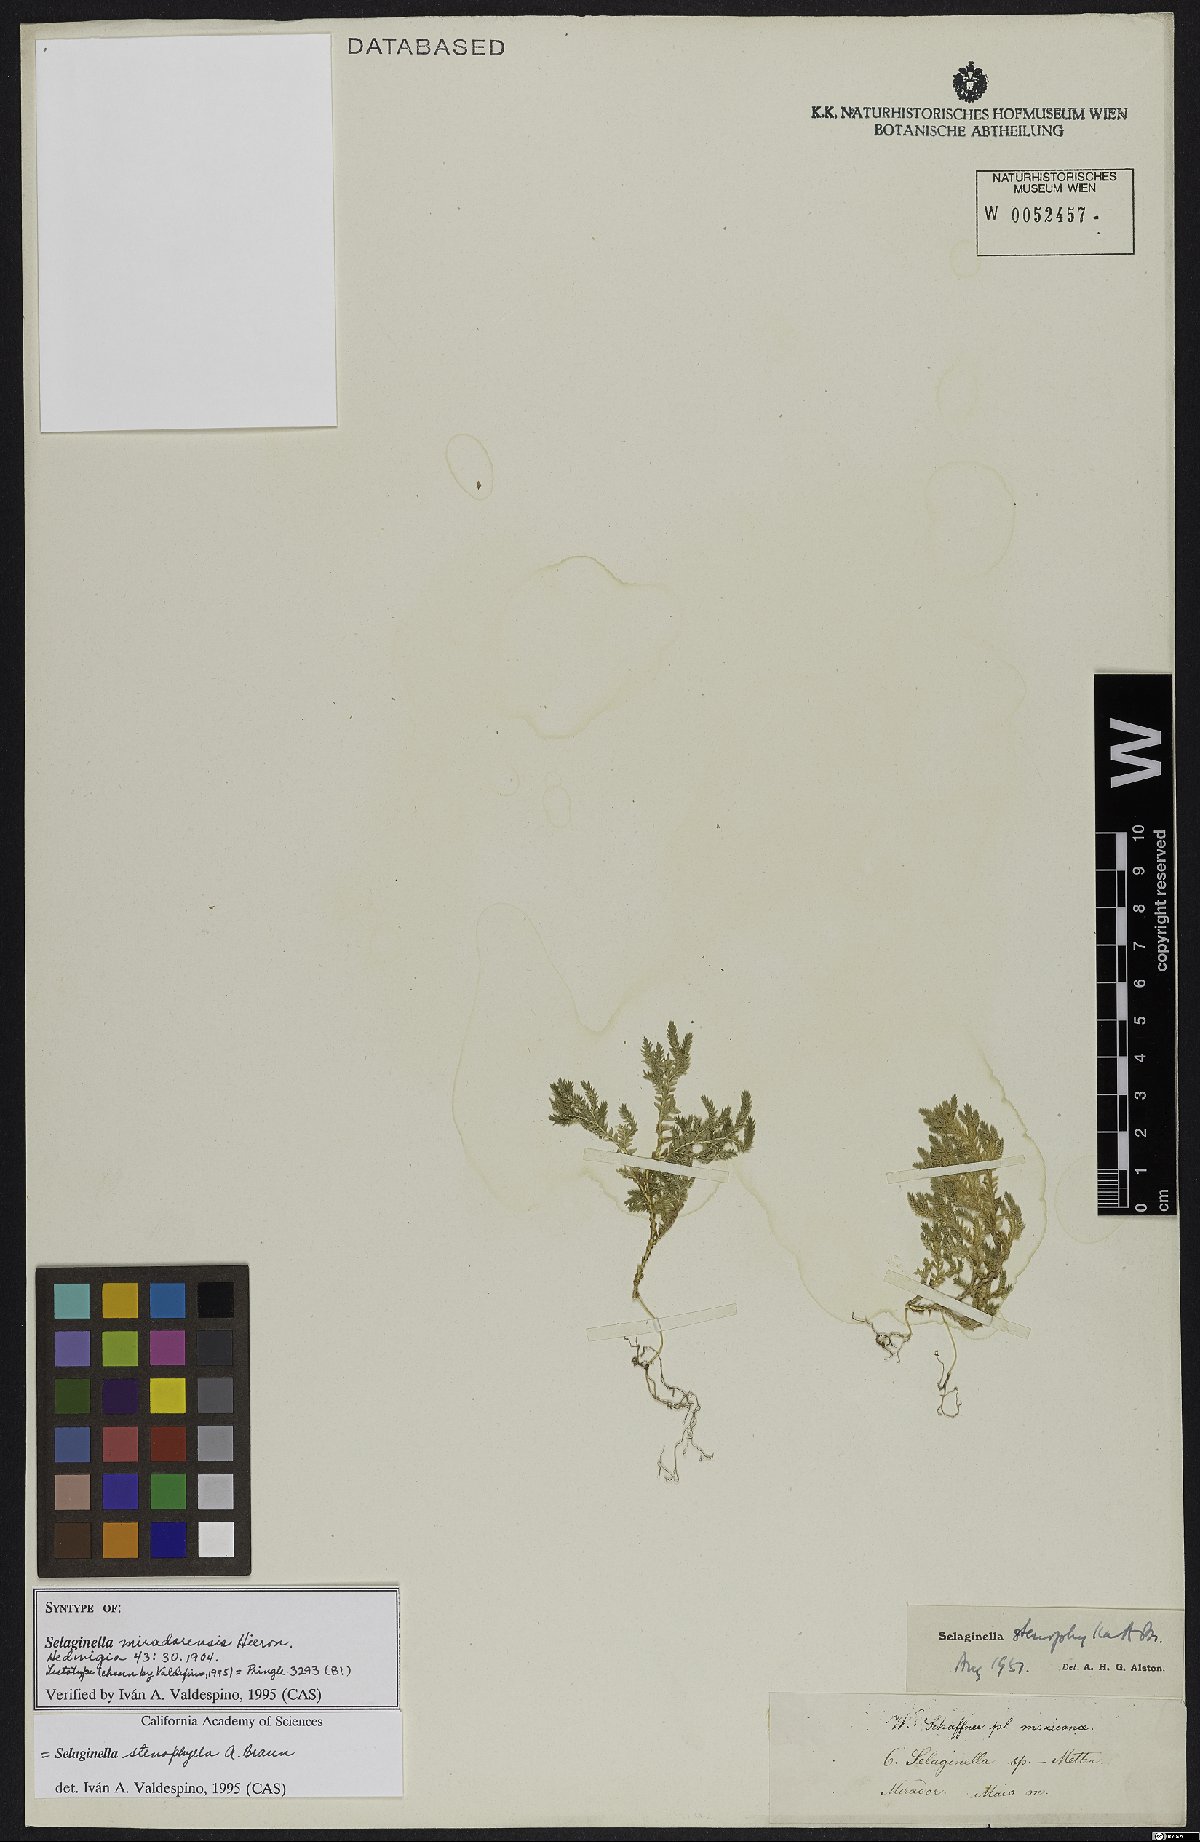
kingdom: Plantae
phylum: Tracheophyta
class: Lycopodiopsida
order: Selaginellales
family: Selaginellaceae
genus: Selaginella
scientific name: Selaginella stenophylla
